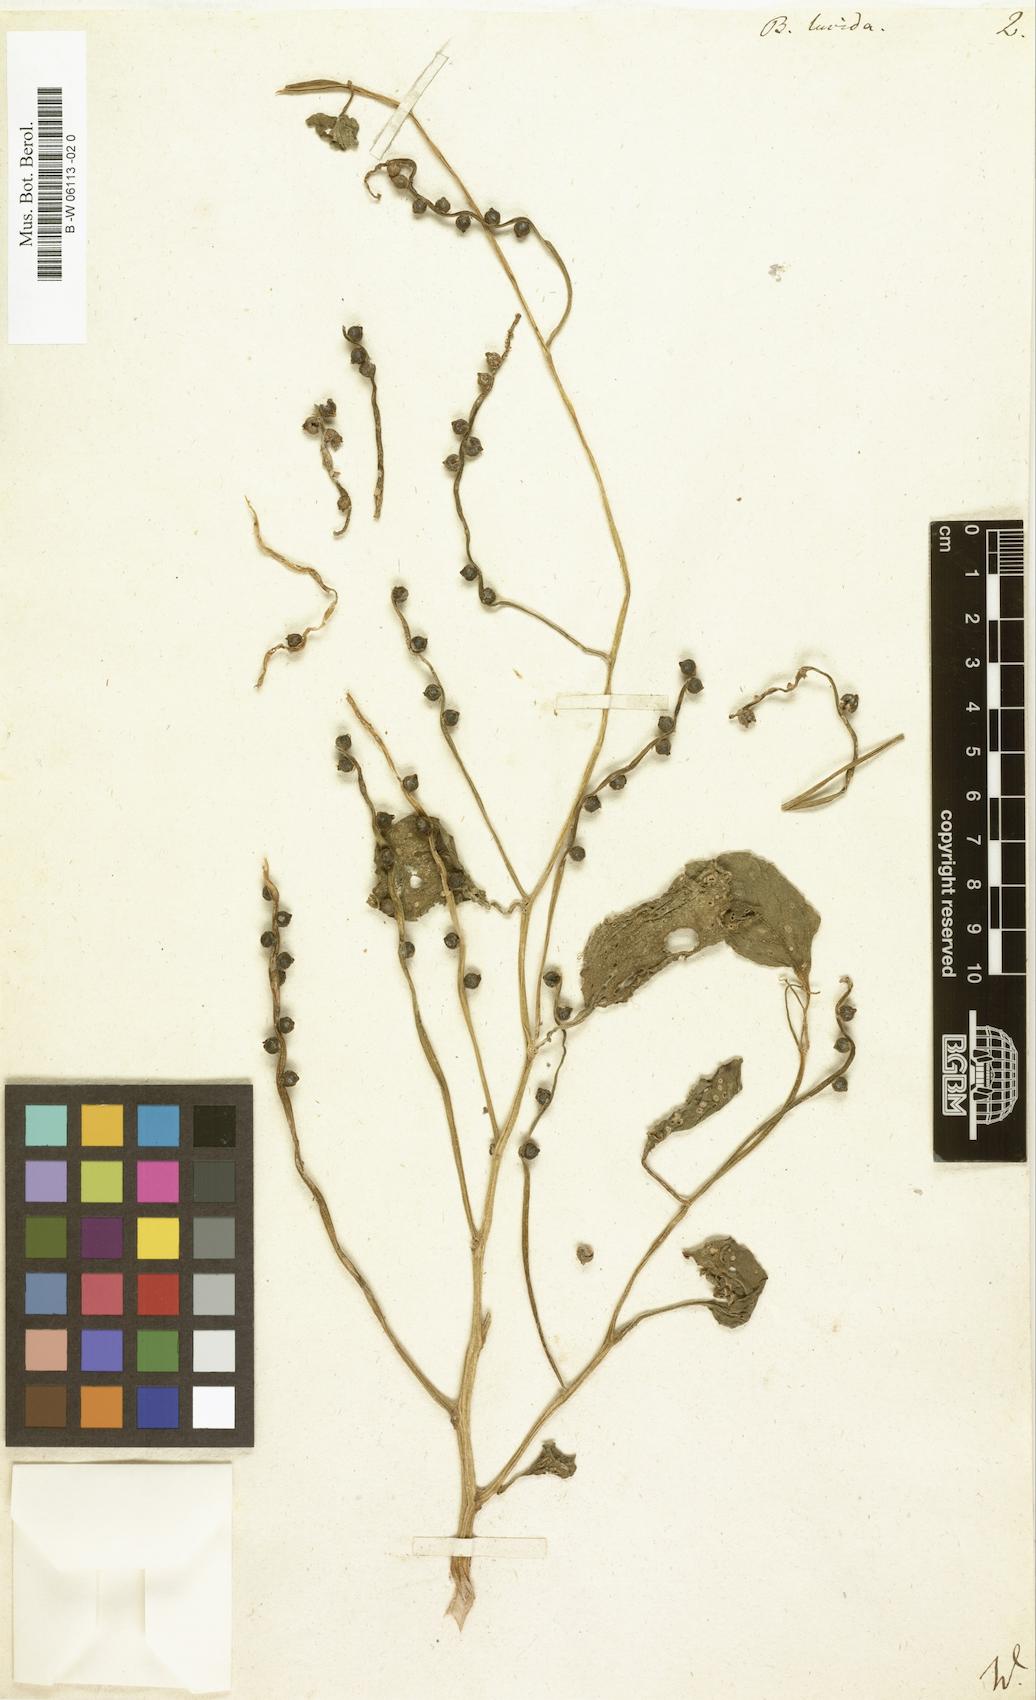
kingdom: Plantae
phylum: Tracheophyta
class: Magnoliopsida
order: Caryophyllales
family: Basellaceae
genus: Basella
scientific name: Basella alba
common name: Indian spinach
